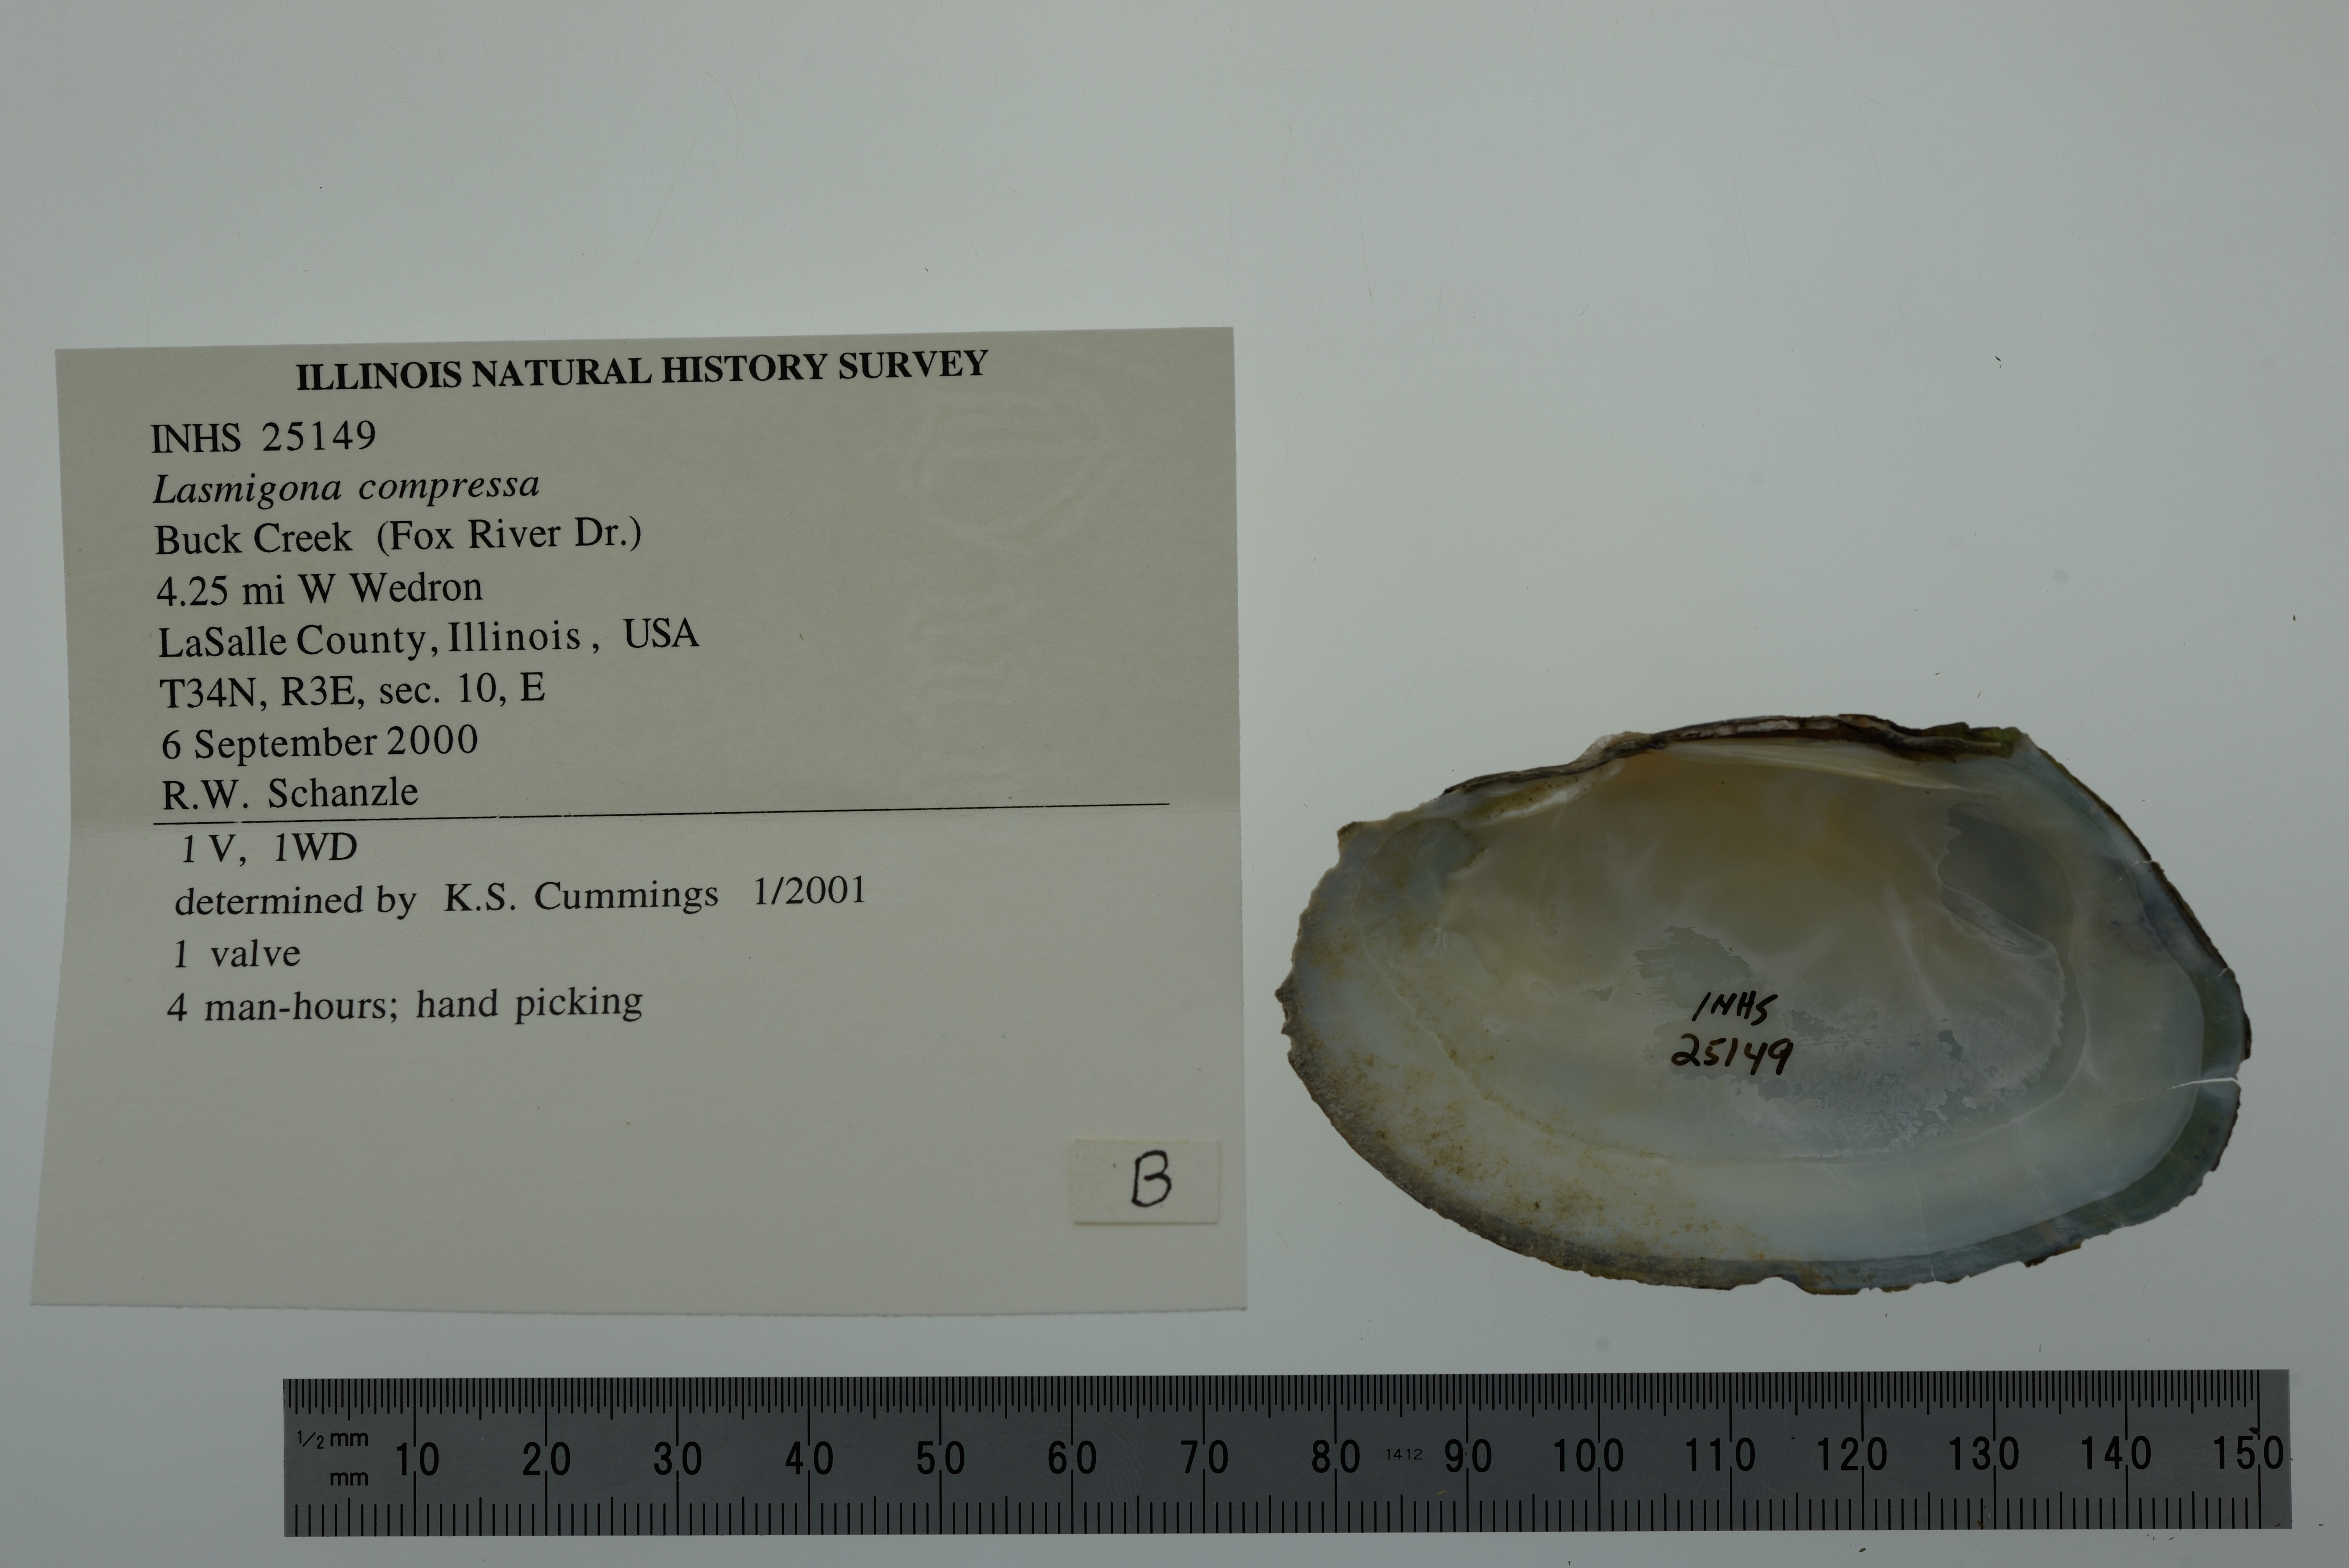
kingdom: Animalia
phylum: Mollusca
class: Bivalvia
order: Unionida
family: Unionidae
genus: Lasmigona
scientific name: Lasmigona compressa
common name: Creek heelsplitter
